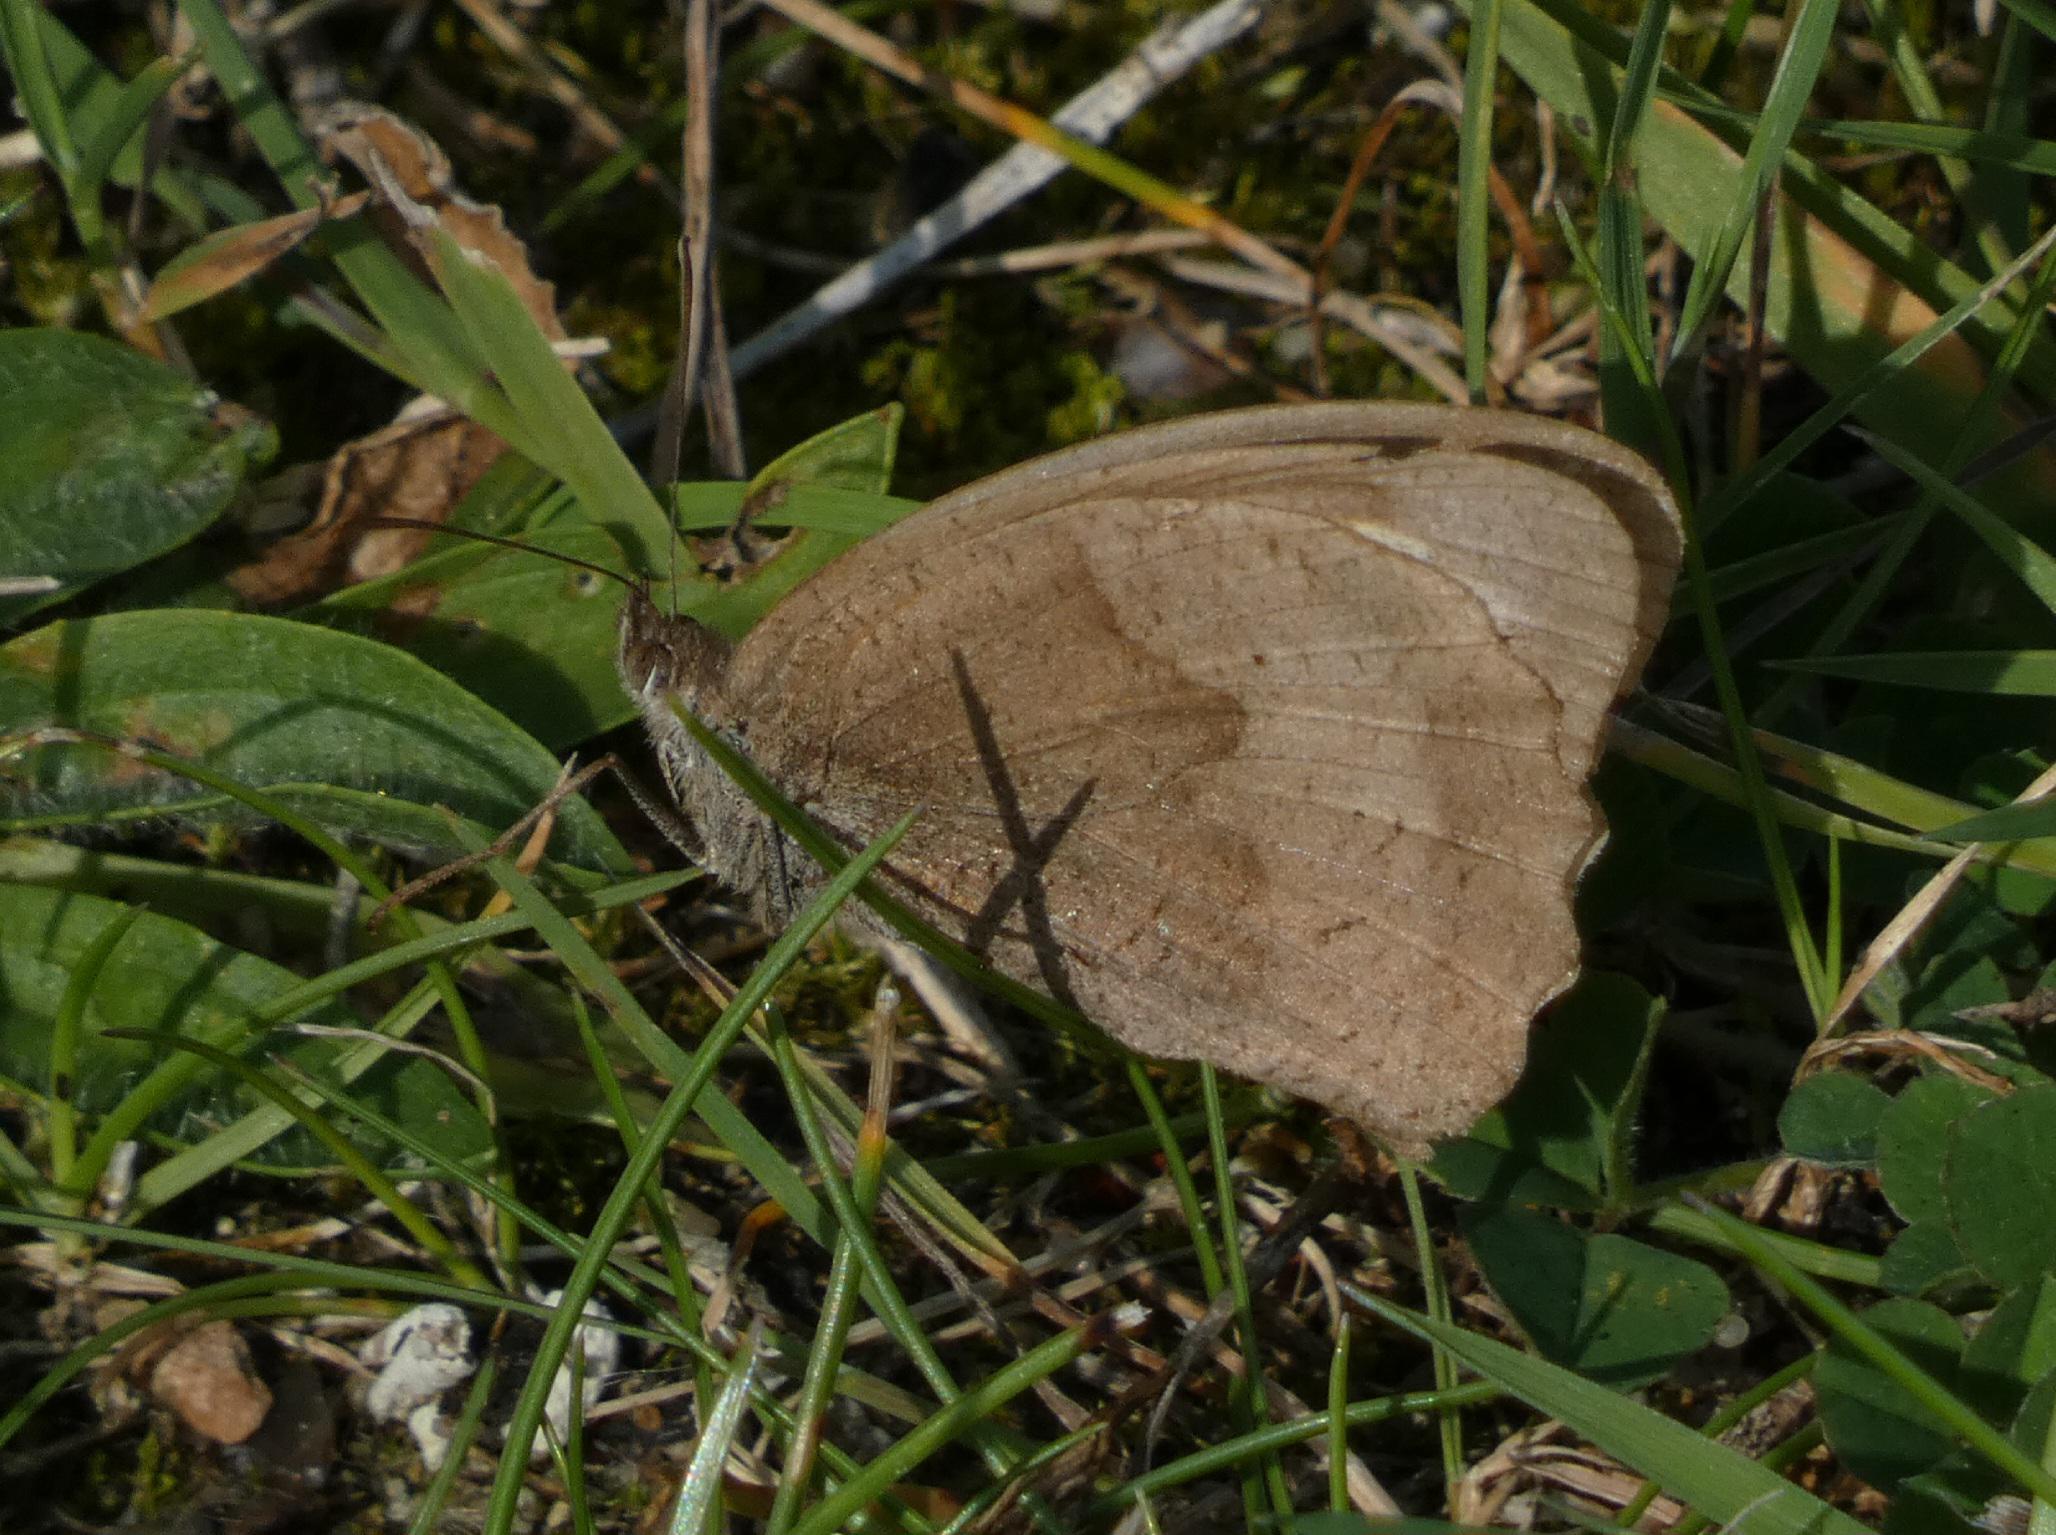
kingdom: Animalia
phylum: Arthropoda
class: Insecta
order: Lepidoptera
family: Nymphalidae
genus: Maniola
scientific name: Maniola jurtina
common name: Græsrandøje
